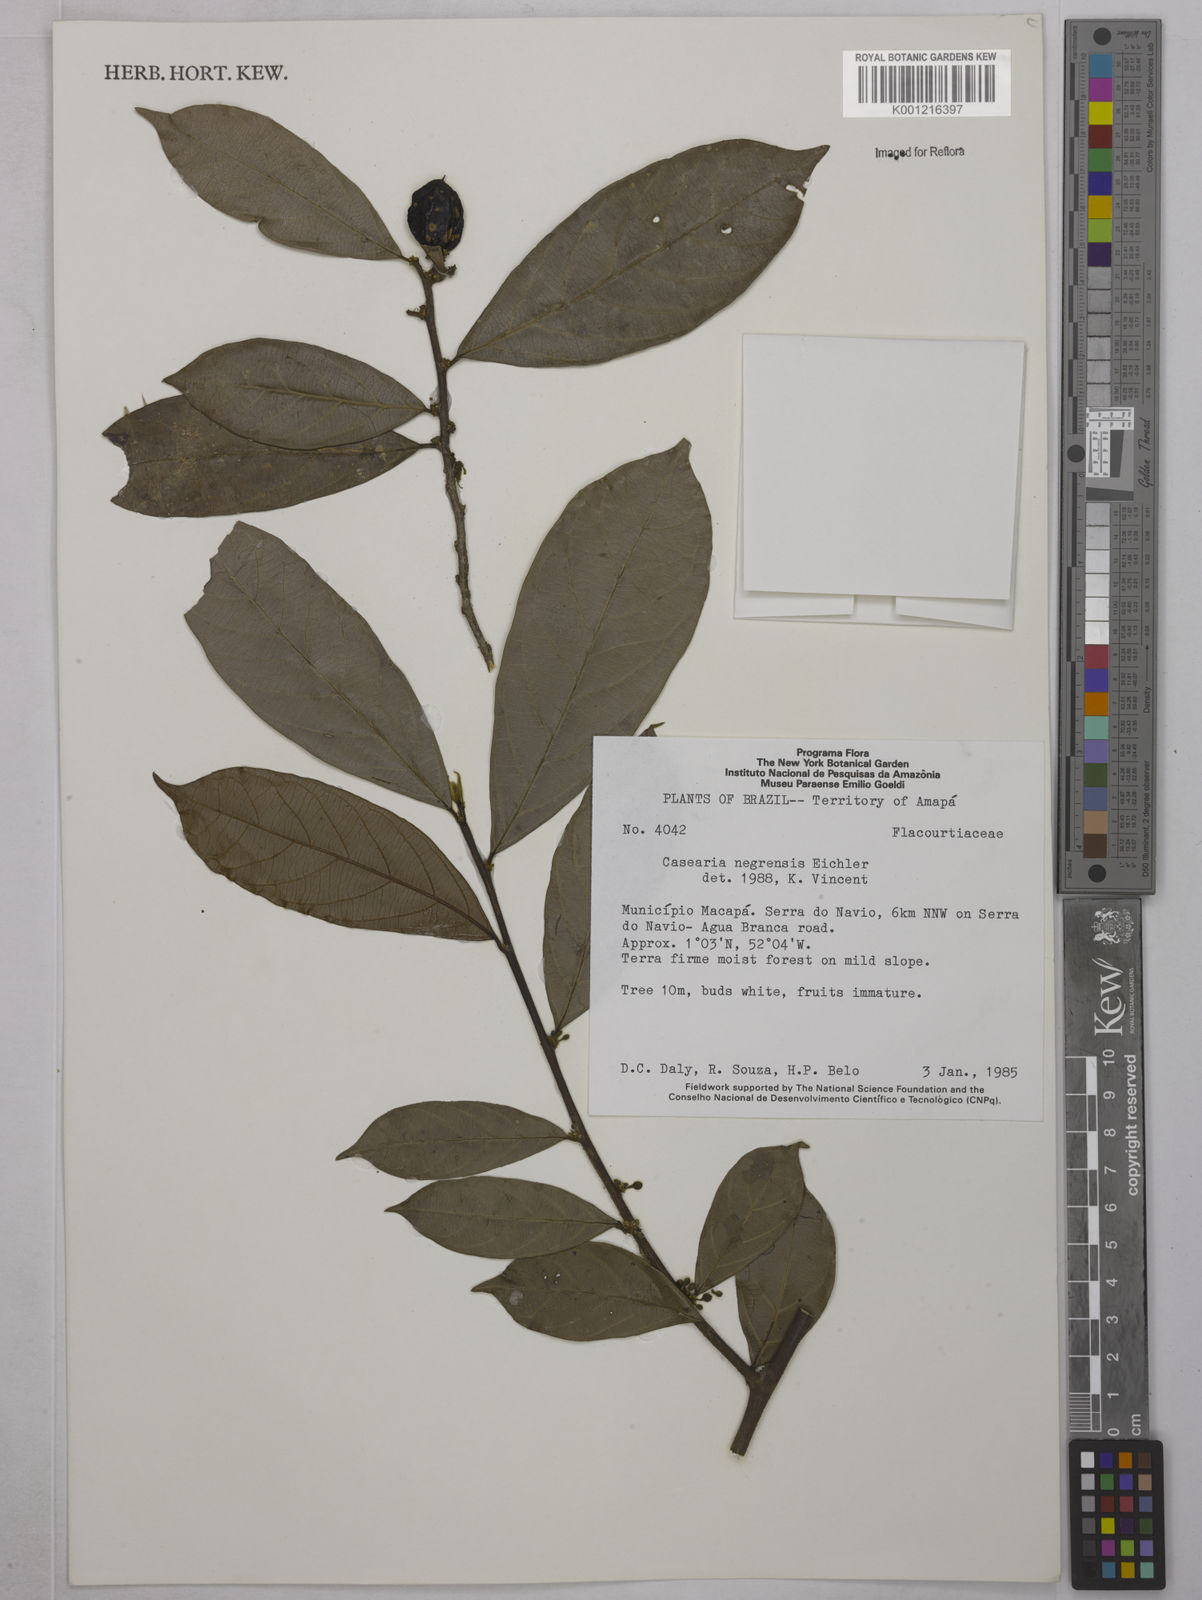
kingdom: Plantae
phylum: Tracheophyta
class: Magnoliopsida
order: Malpighiales
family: Salicaceae
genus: Casearia
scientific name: Casearia negrensis
